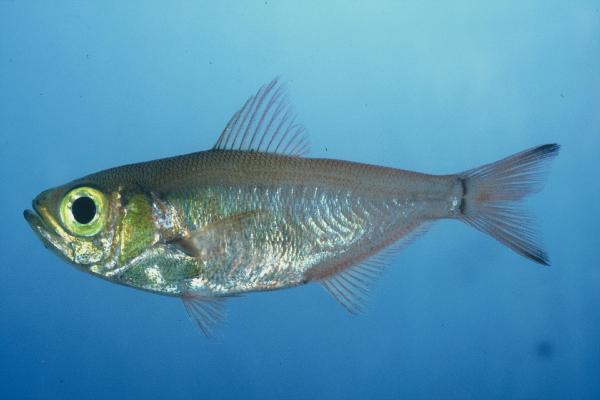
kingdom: Animalia
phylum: Chordata
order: Perciformes
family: Pempheridae
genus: Parapriacanthus
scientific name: Parapriacanthus argenteus
